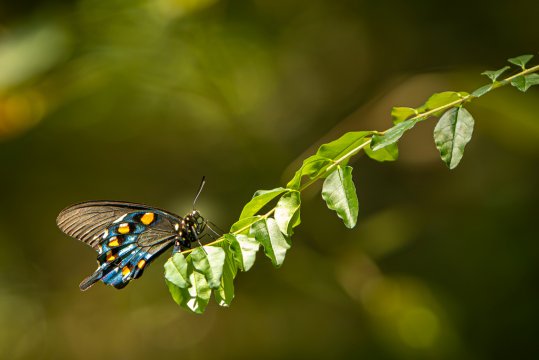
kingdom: Animalia
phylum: Arthropoda
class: Insecta
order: Lepidoptera
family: Papilionidae
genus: Battus
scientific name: Battus philenor
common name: Pipevine Swallowtail
